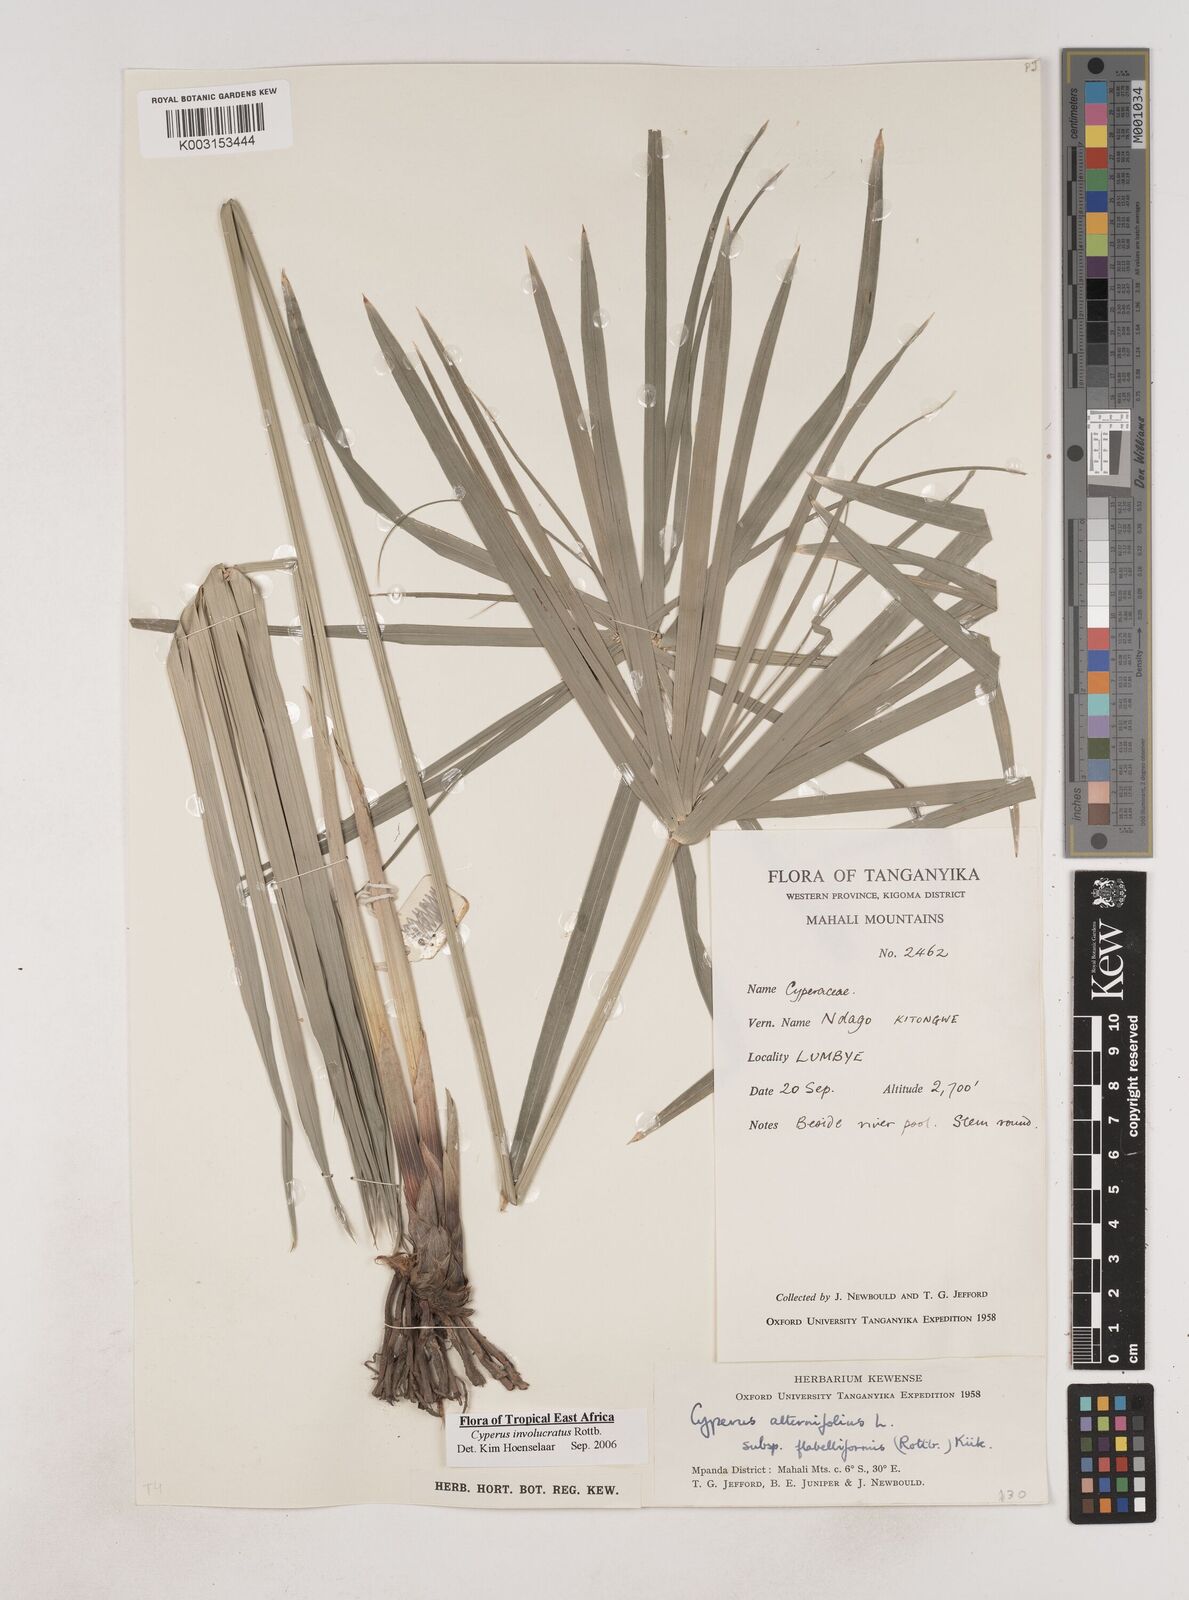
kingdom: Plantae
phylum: Tracheophyta
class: Liliopsida
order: Poales
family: Cyperaceae
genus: Cyperus
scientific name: Cyperus alternifolius
